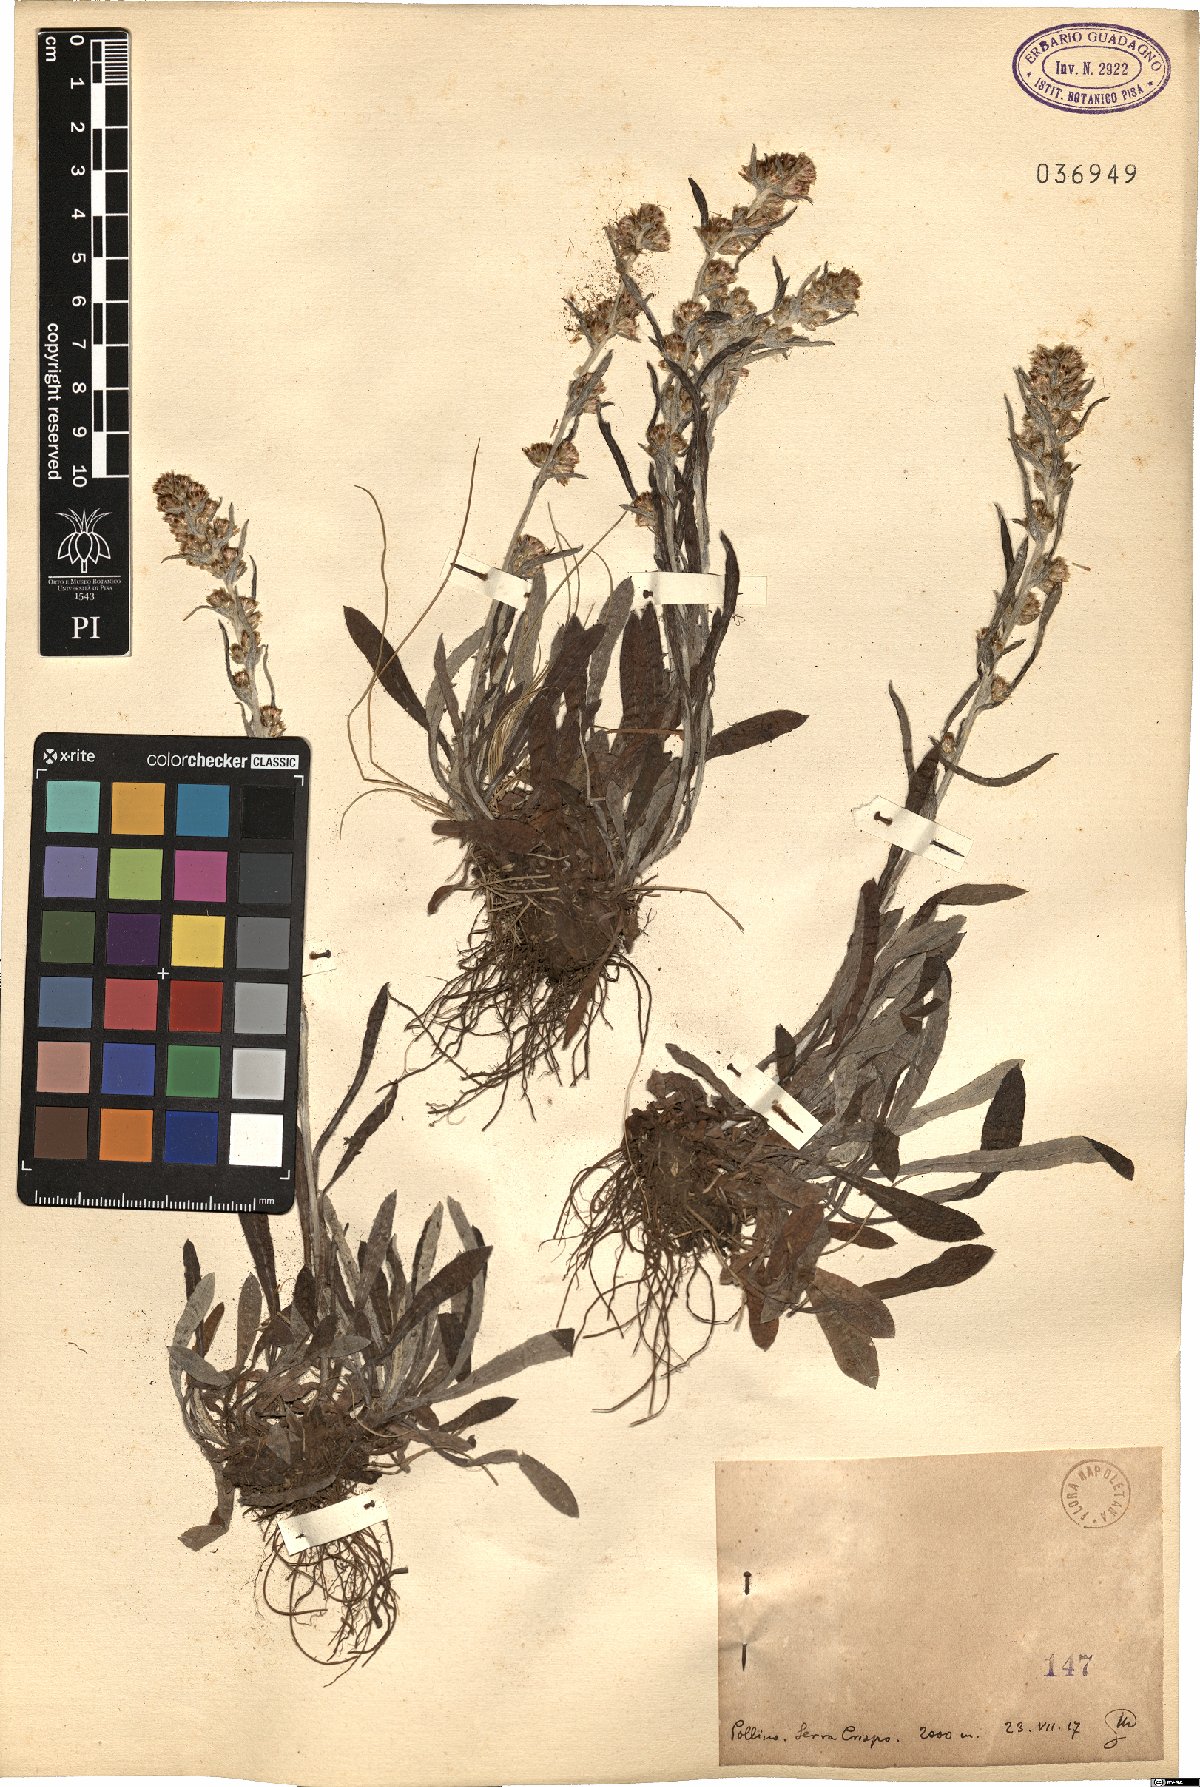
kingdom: Plantae
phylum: Tracheophyta
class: Magnoliopsida
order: Asterales
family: Asteraceae
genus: Gnaphalium
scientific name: Gnaphalium
